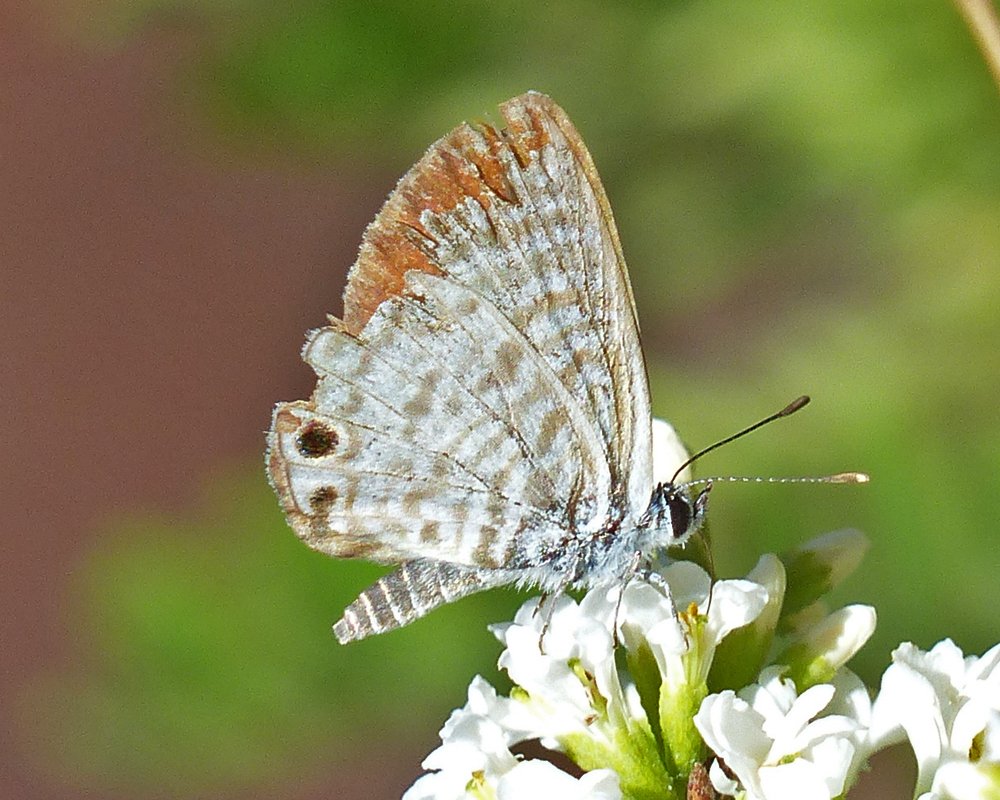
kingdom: Animalia
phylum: Arthropoda
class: Insecta
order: Lepidoptera
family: Lycaenidae
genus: Leptotes
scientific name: Leptotes marina
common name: Marine Blue
